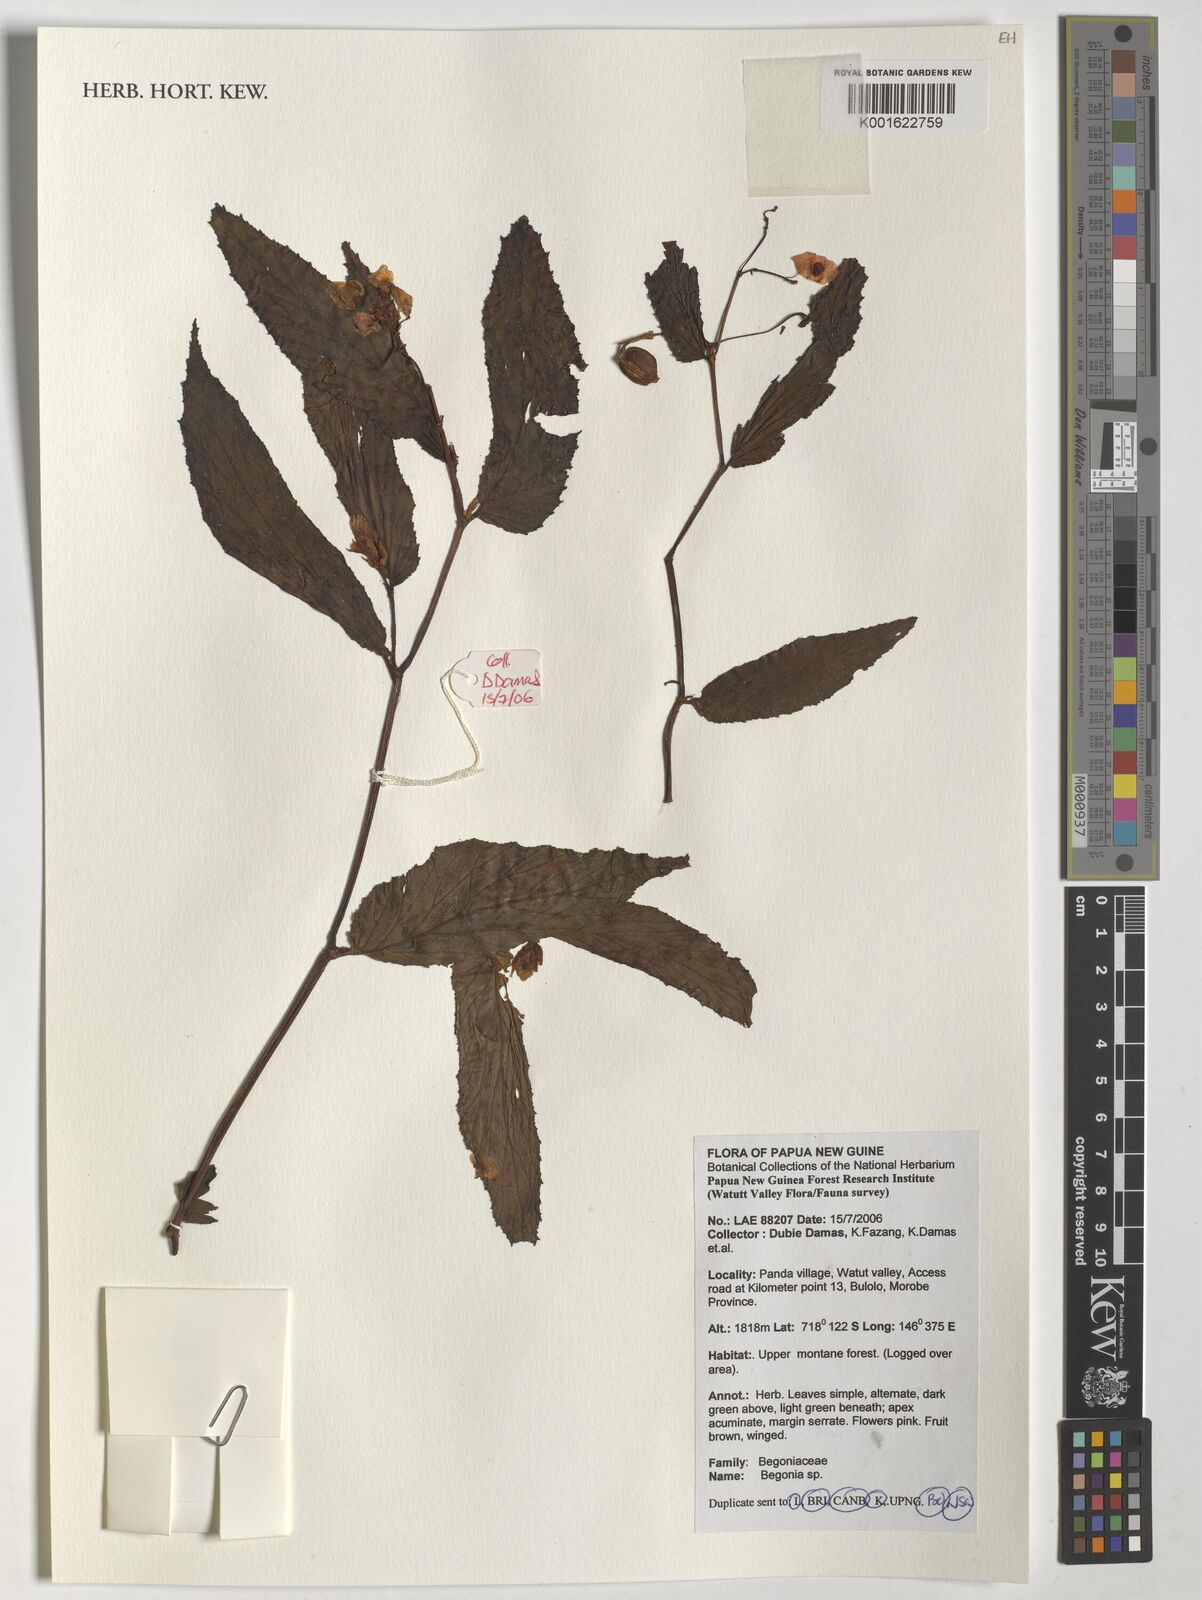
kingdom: Plantae
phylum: Tracheophyta
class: Magnoliopsida
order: Cucurbitales
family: Begoniaceae
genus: Begonia
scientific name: Begonia
